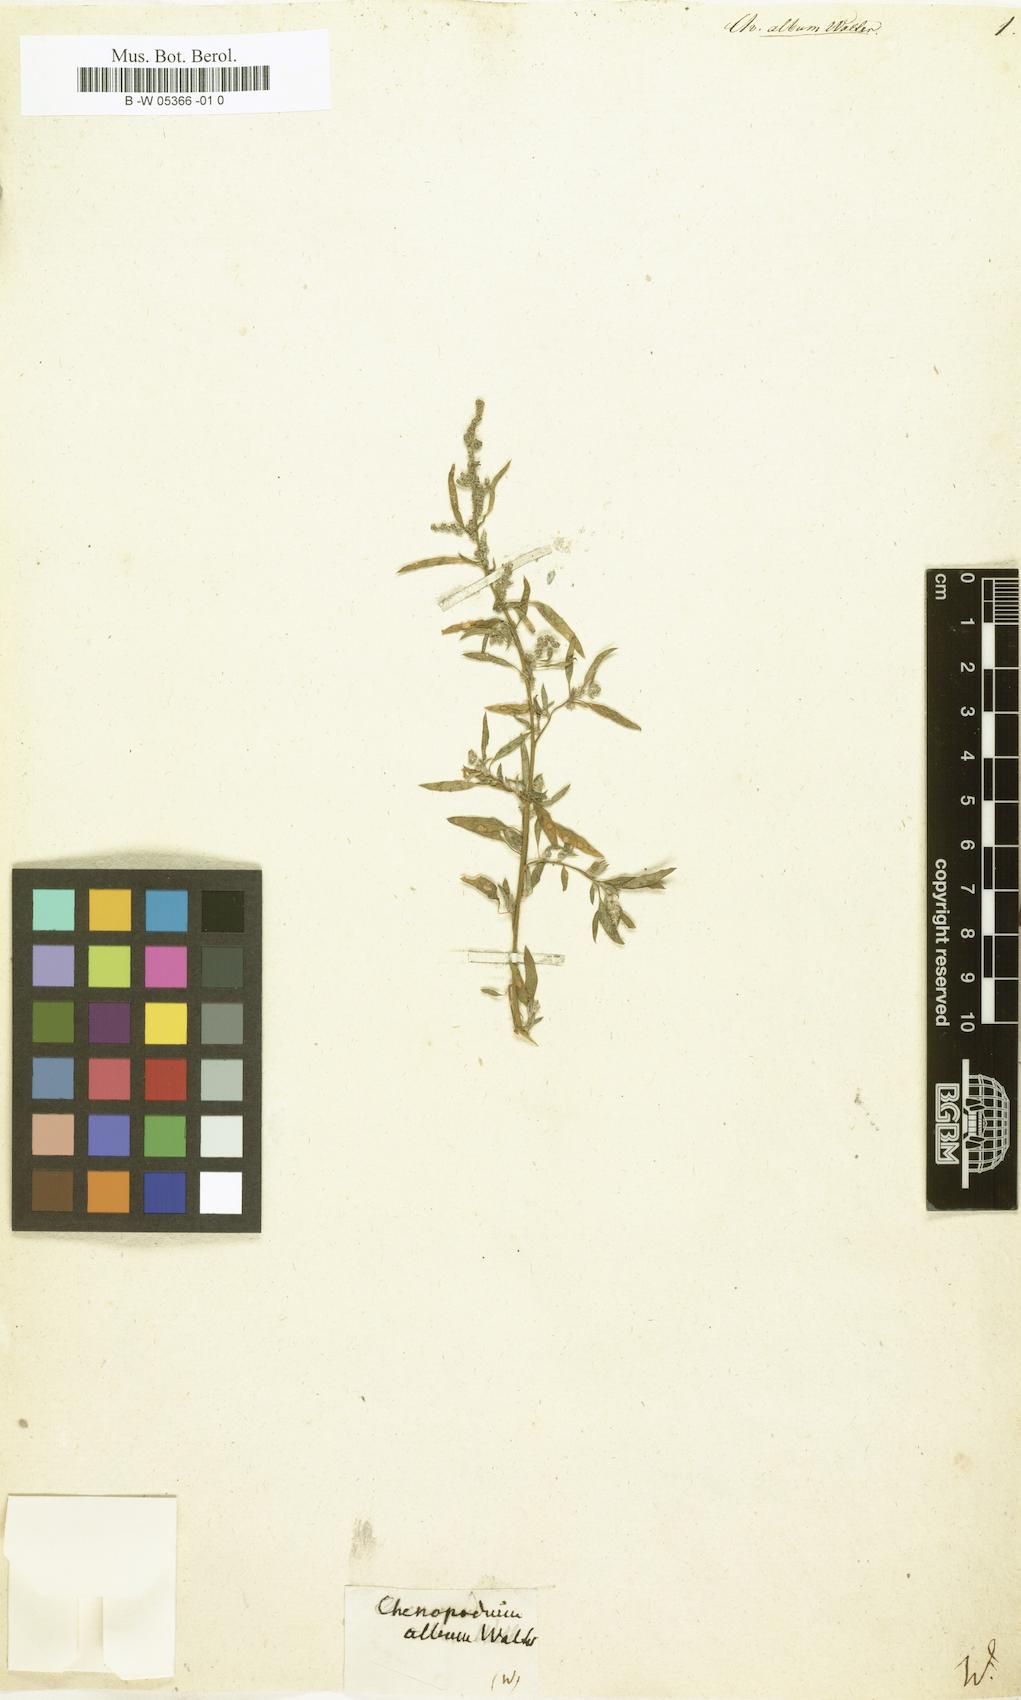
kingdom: Plantae
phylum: Tracheophyta
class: Magnoliopsida
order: Caryophyllales
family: Amaranthaceae
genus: Chenopodium
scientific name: Chenopodium album
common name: Fat-hen
